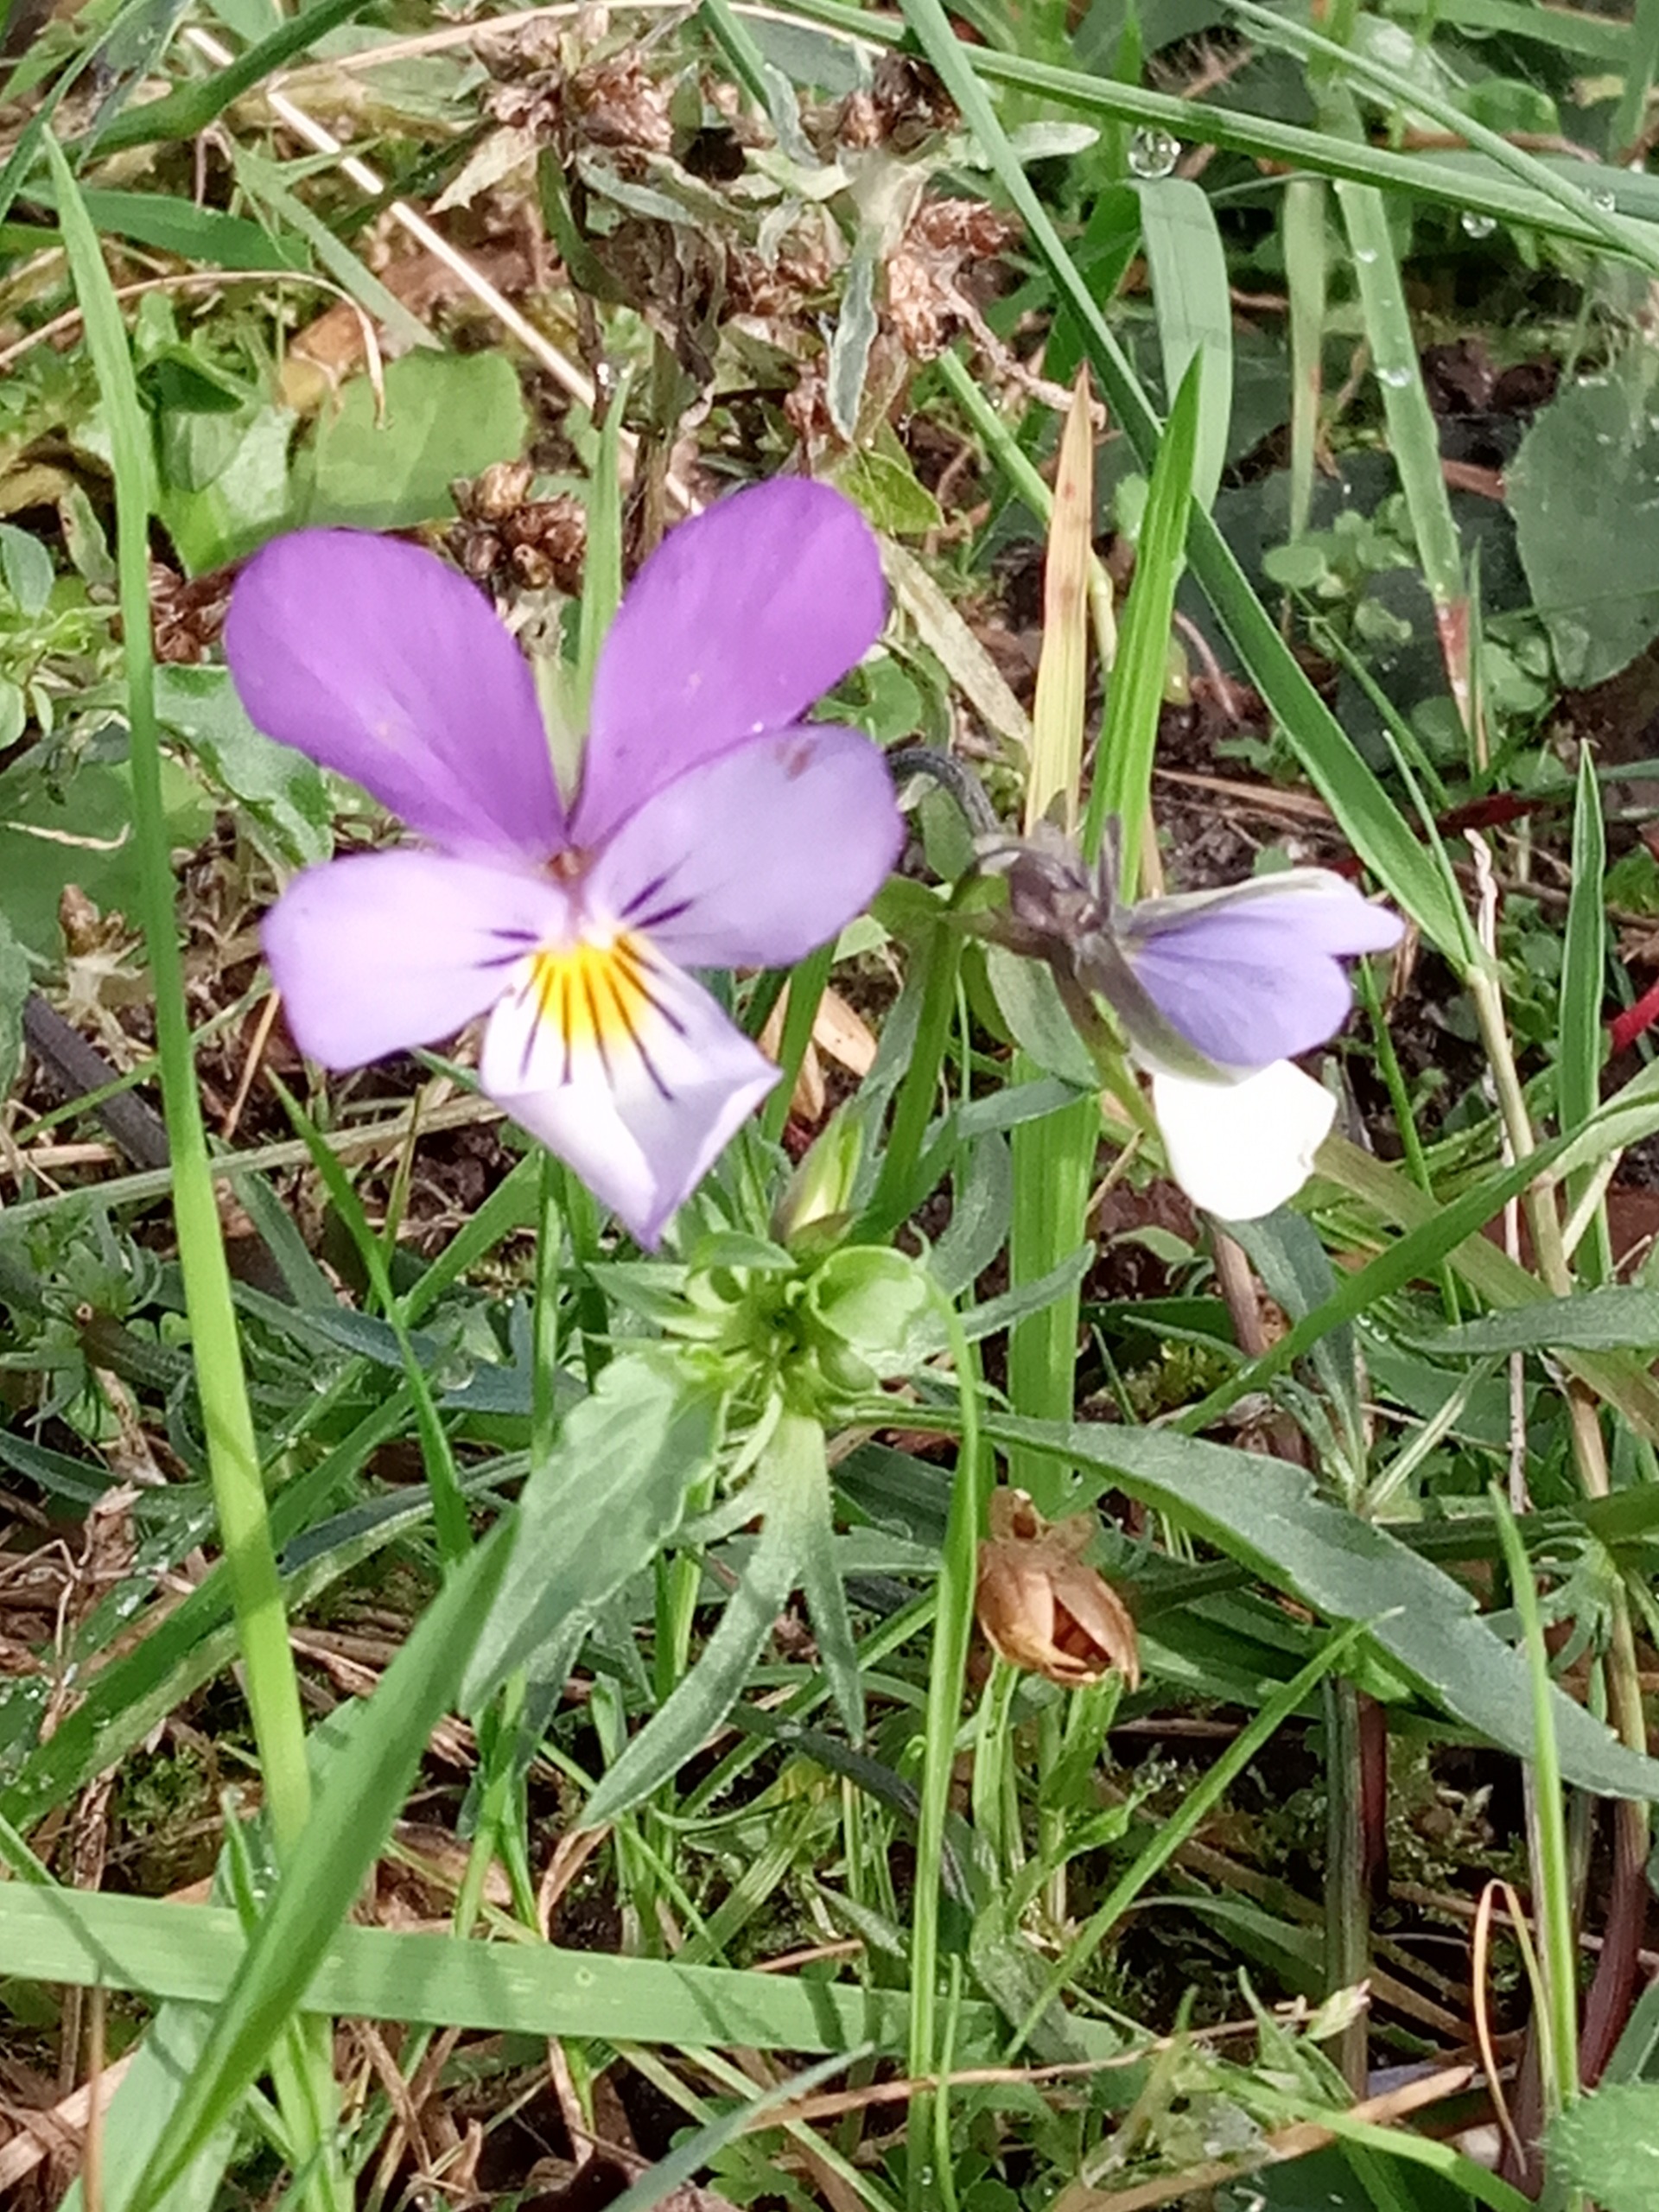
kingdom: Plantae
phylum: Tracheophyta
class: Magnoliopsida
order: Malpighiales
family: Violaceae
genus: Viola
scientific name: Viola tricolor
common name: Stedmoderblomst
